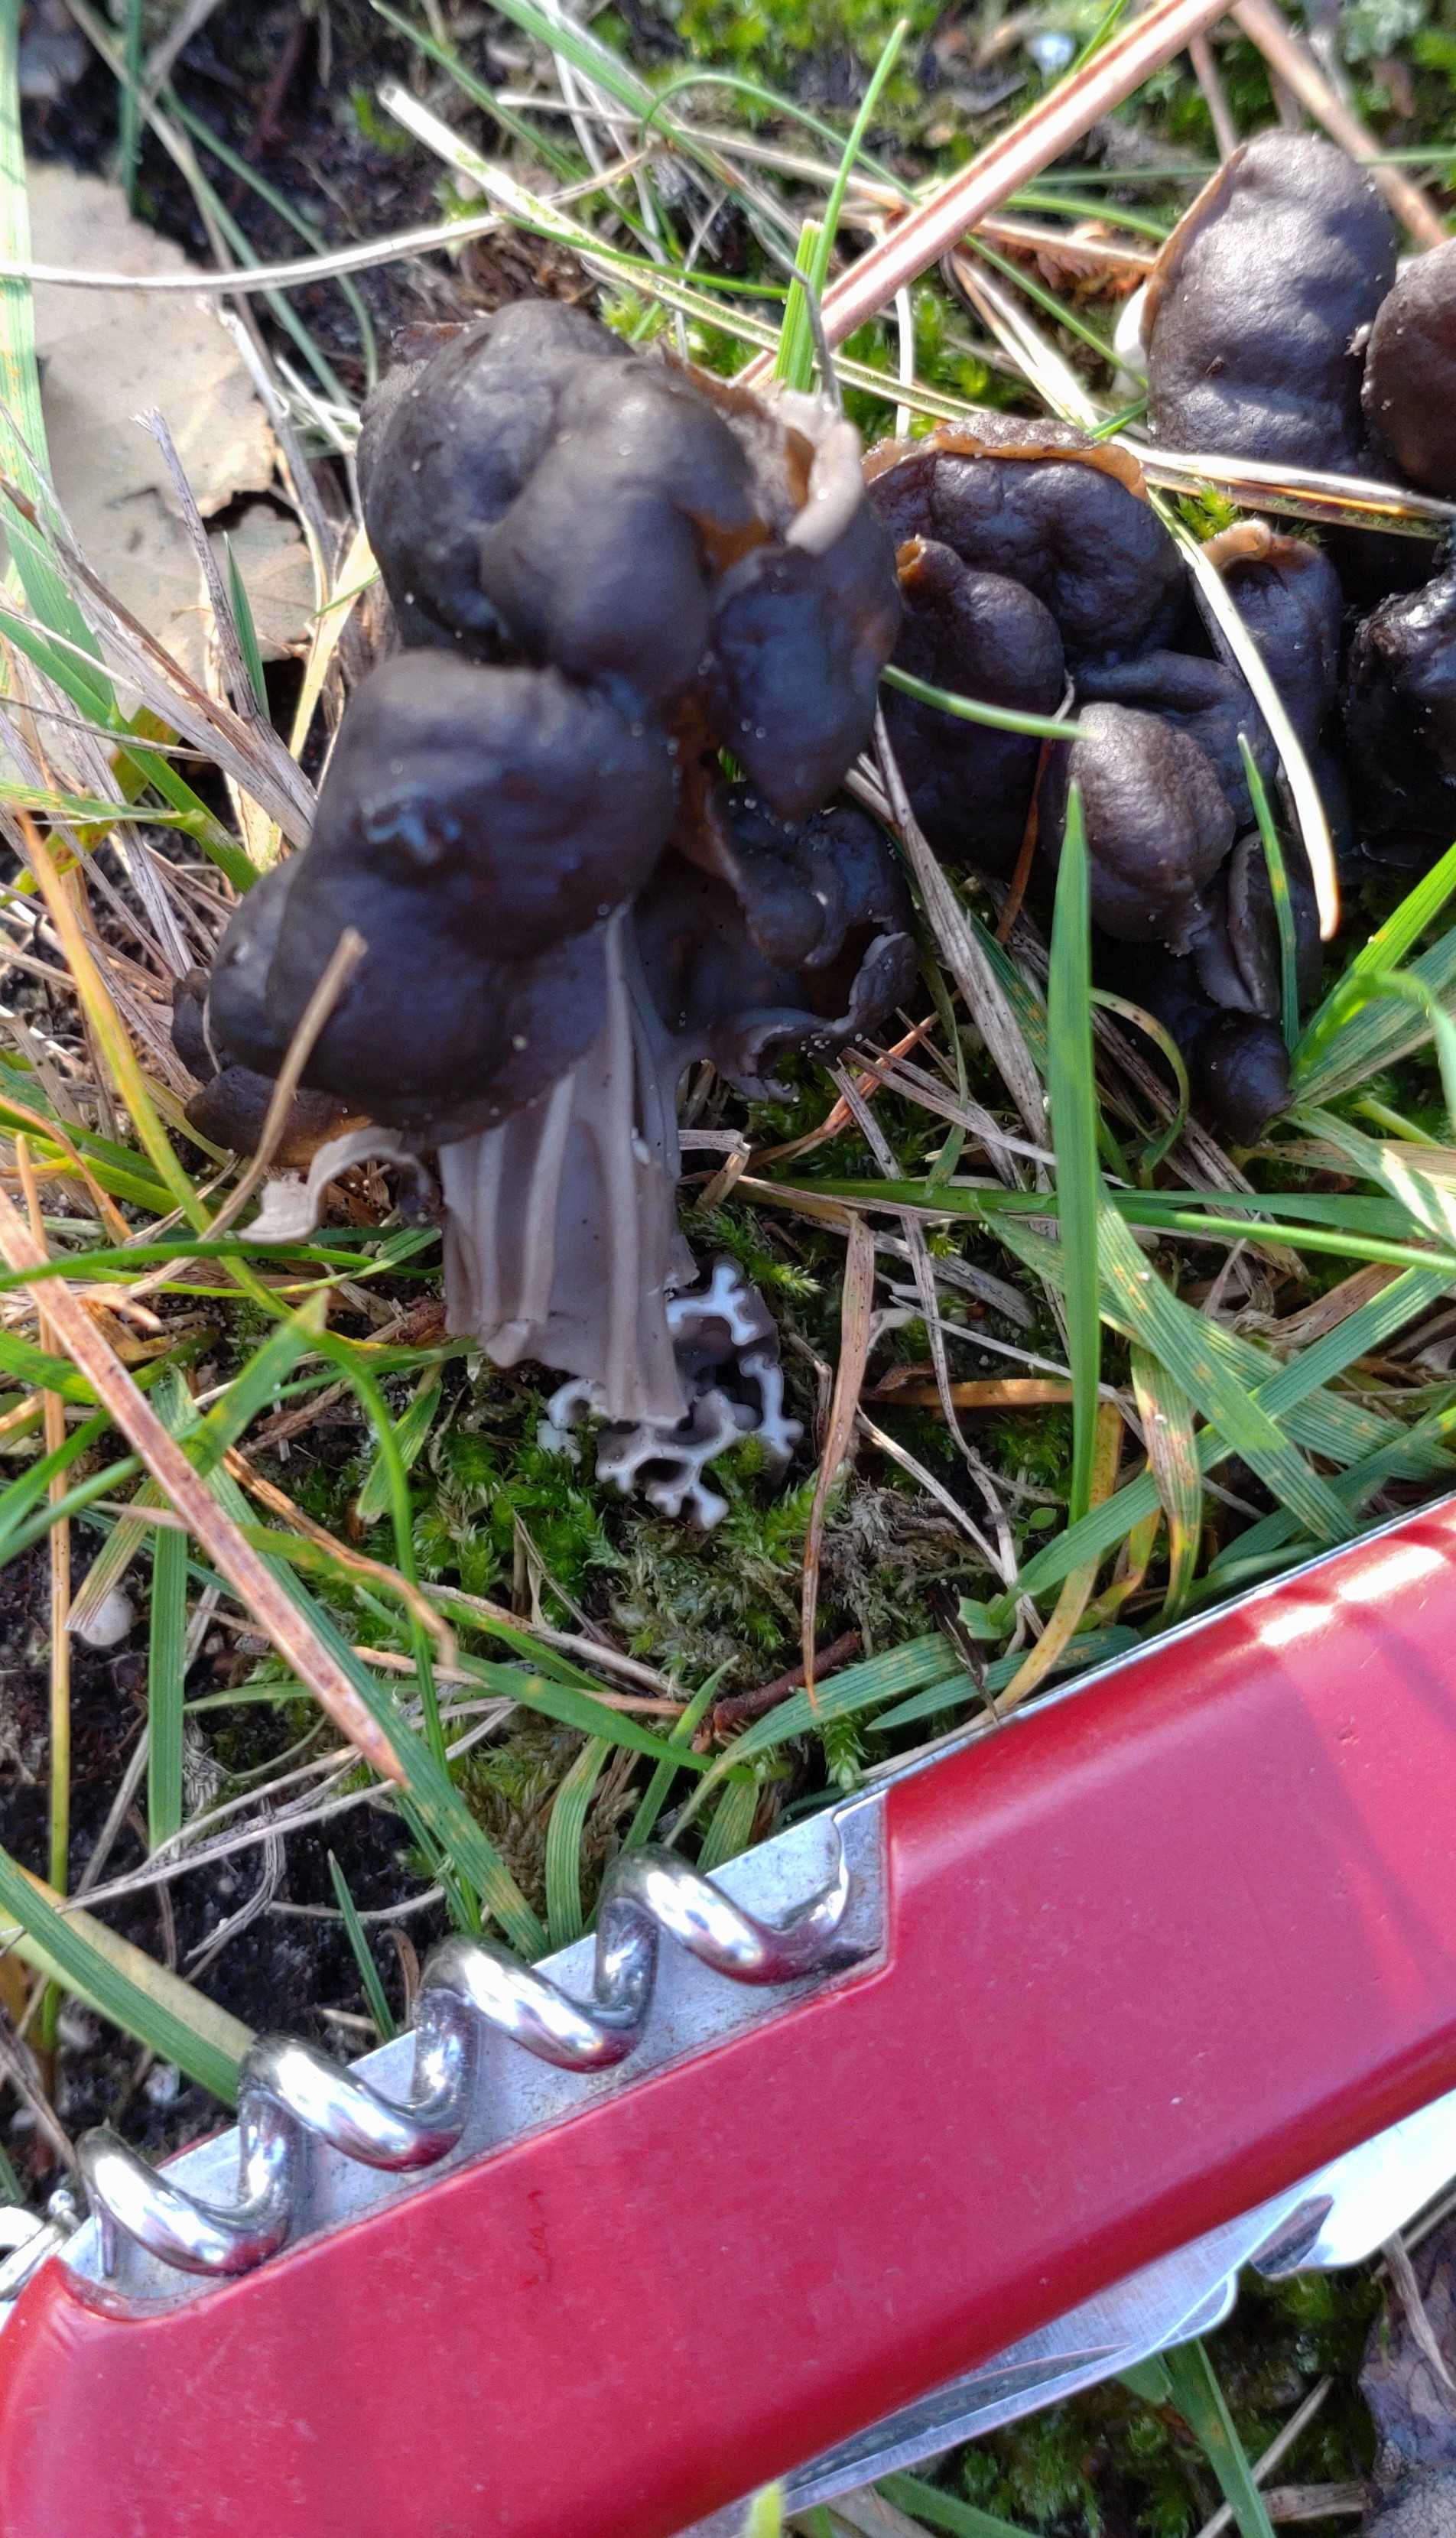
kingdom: Fungi
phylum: Ascomycota
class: Pezizomycetes
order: Pezizales
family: Helvellaceae
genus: Helvella
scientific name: Helvella lacunosa
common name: grubet foldhat
